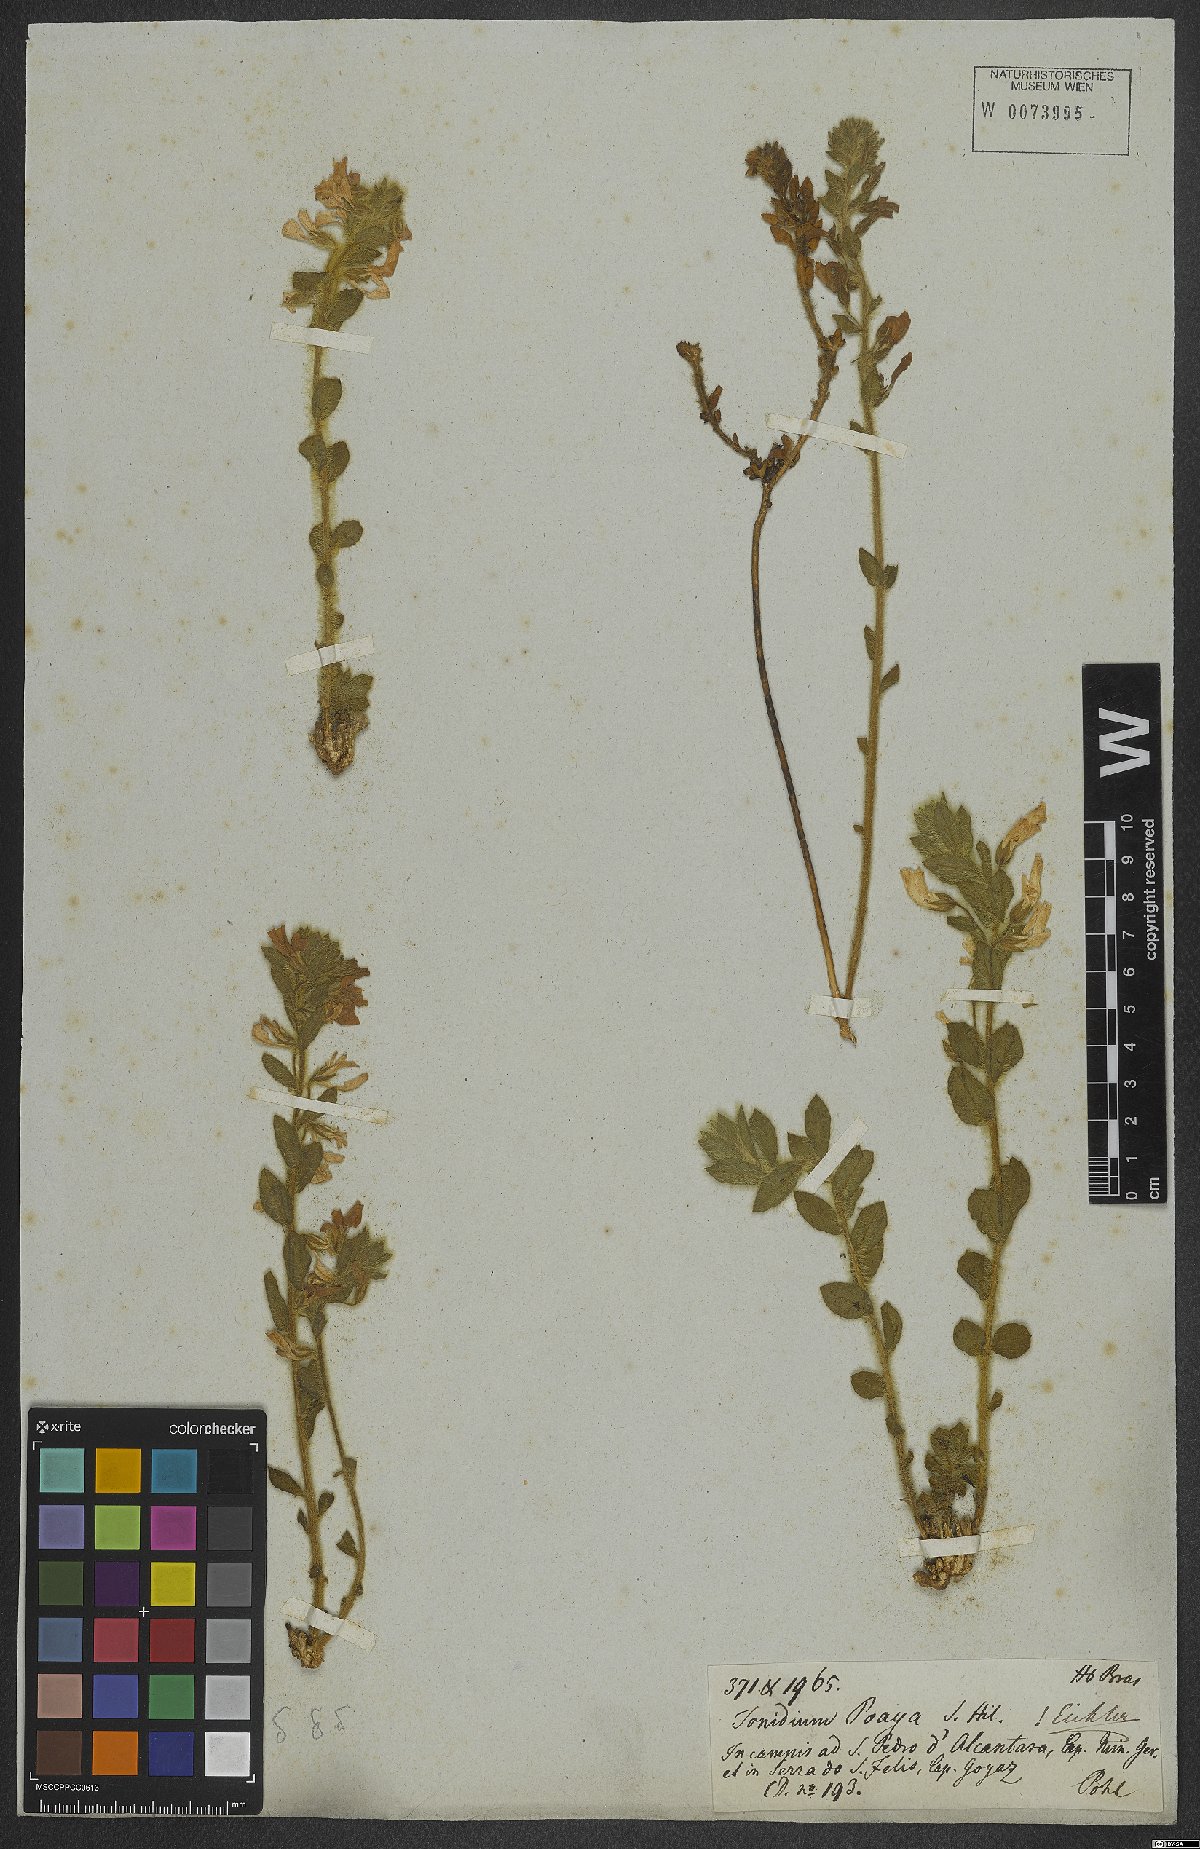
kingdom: Plantae
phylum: Tracheophyta
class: Magnoliopsida
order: Malpighiales
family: Violaceae
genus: Pombalia
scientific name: Pombalia poaya
